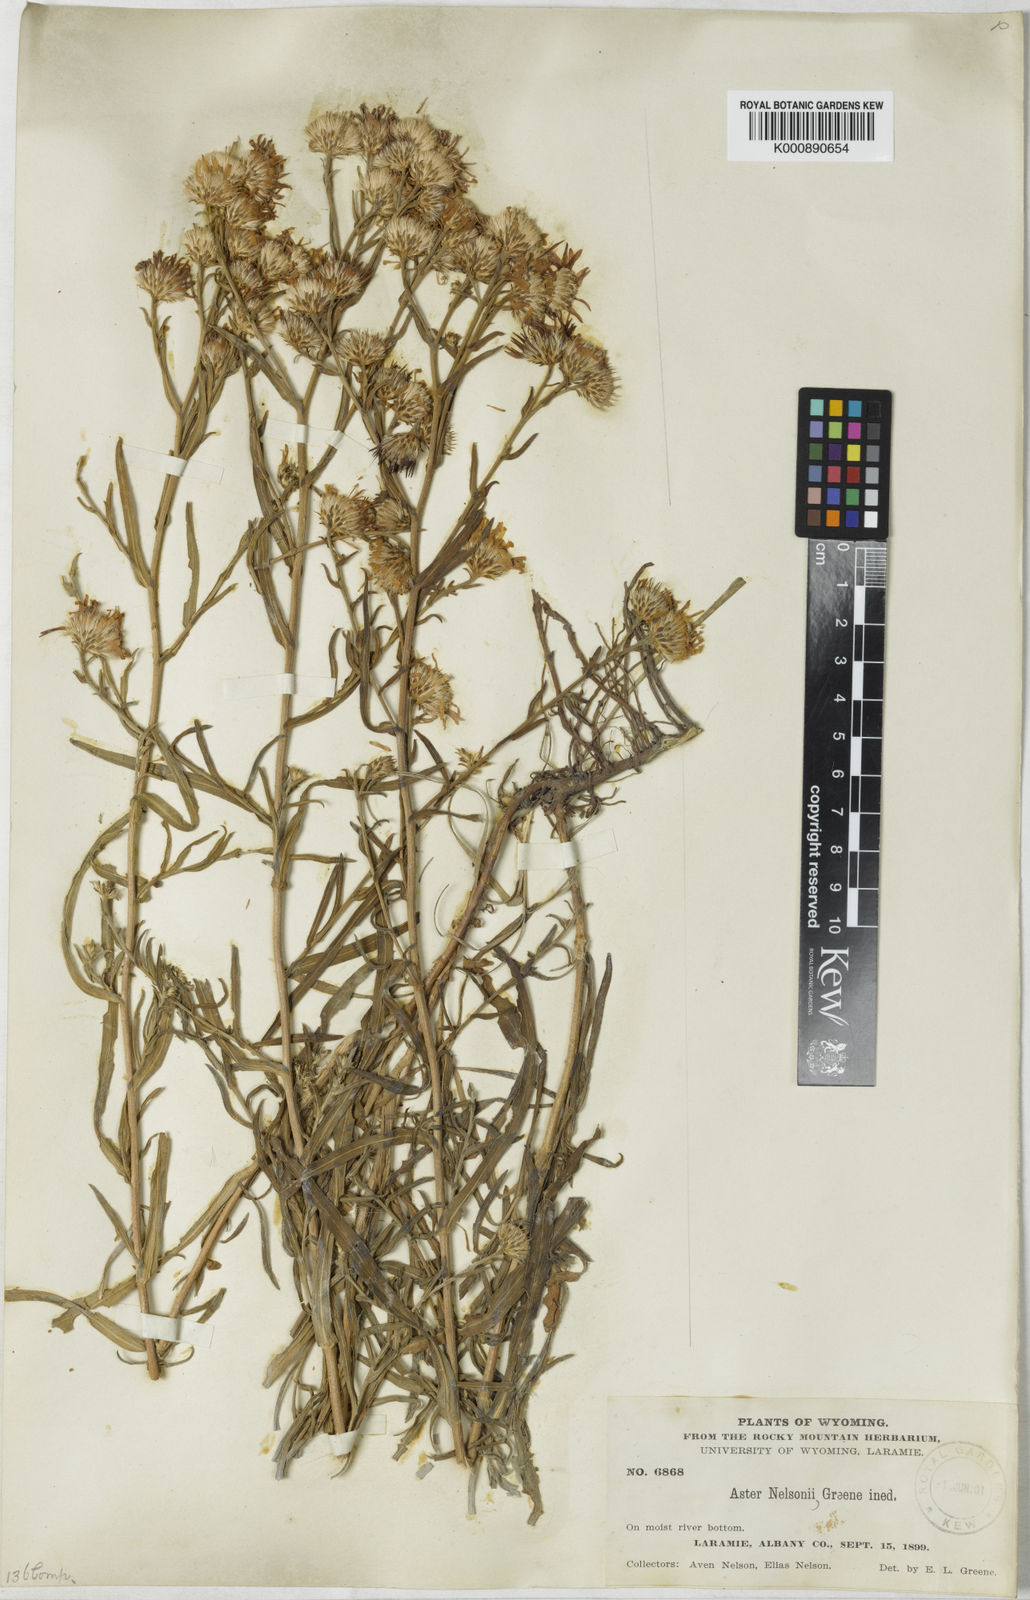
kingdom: Plantae
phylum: Tracheophyta
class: Magnoliopsida
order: Asterales
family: Asteraceae
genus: Aster
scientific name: Aster nelsonii
